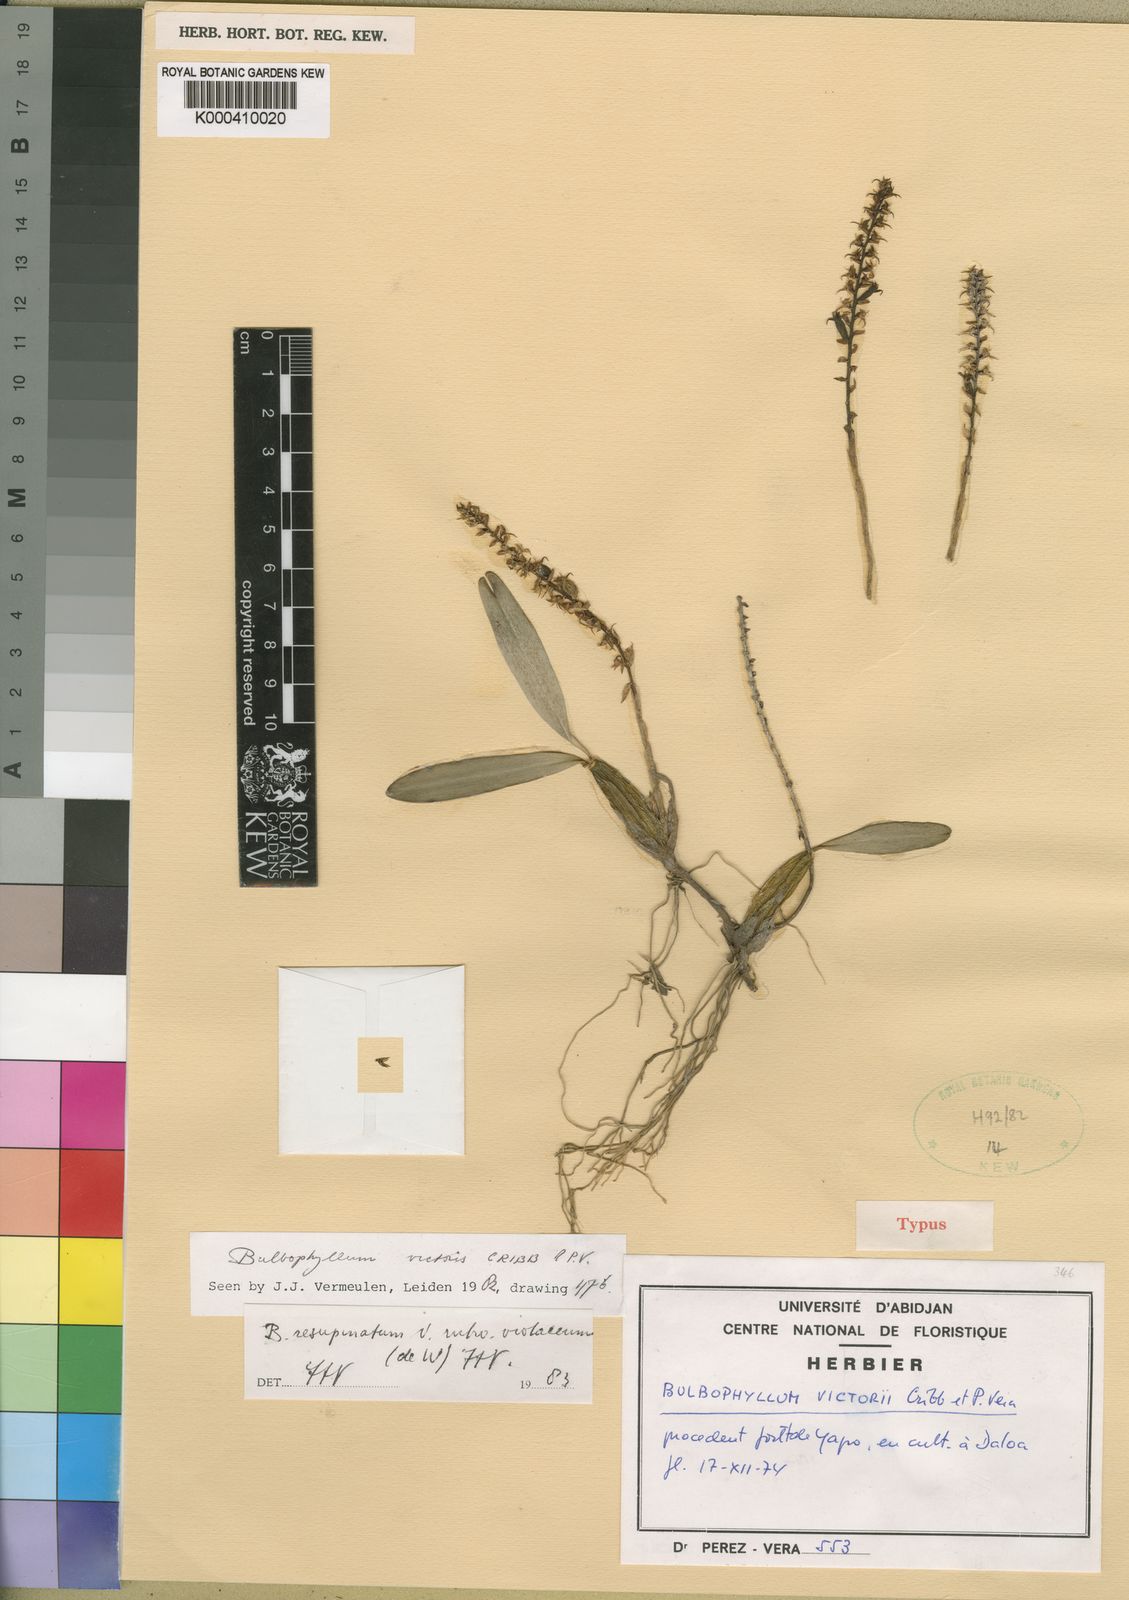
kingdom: Plantae
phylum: Tracheophyta
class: Liliopsida
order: Asparagales
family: Orchidaceae
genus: Bulbophyllum
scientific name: Bulbophyllum resupinatum
